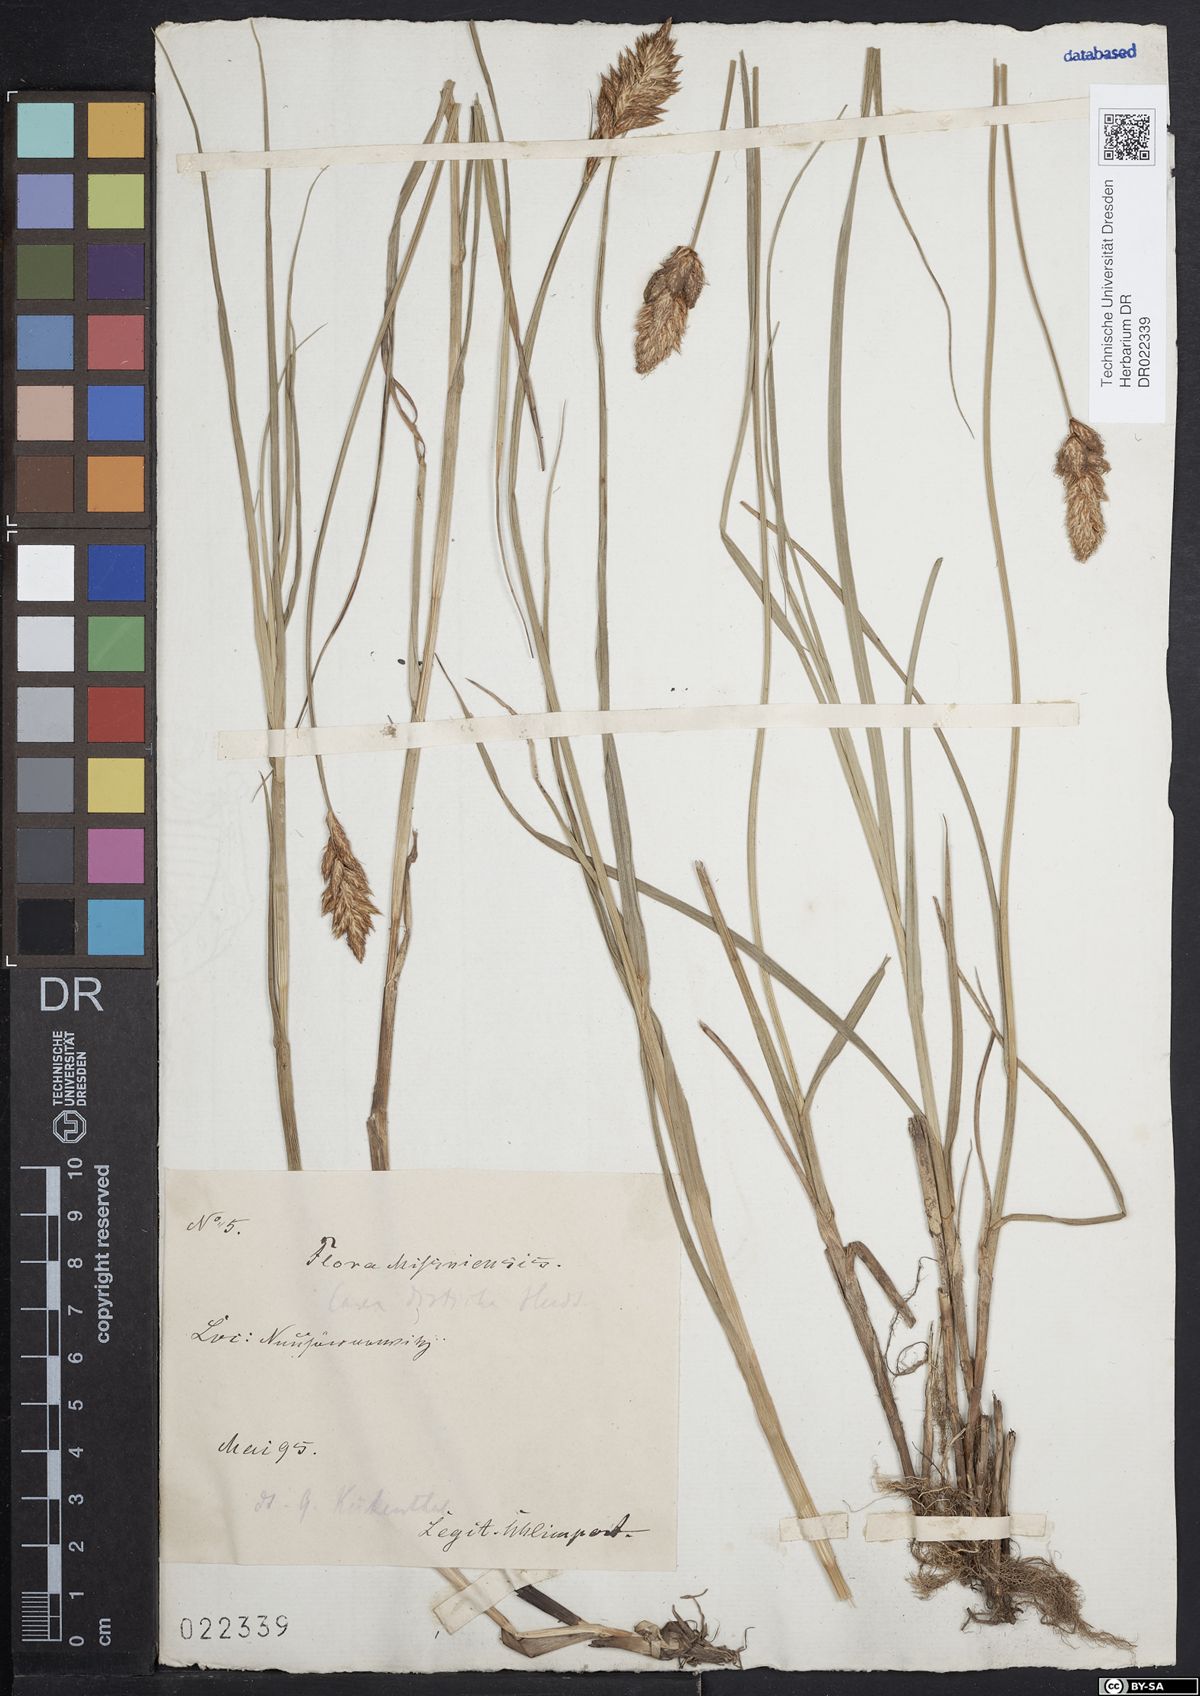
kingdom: Plantae
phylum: Tracheophyta
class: Liliopsida
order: Poales
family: Cyperaceae
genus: Carex
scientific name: Carex disticha
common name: Brown sedge
